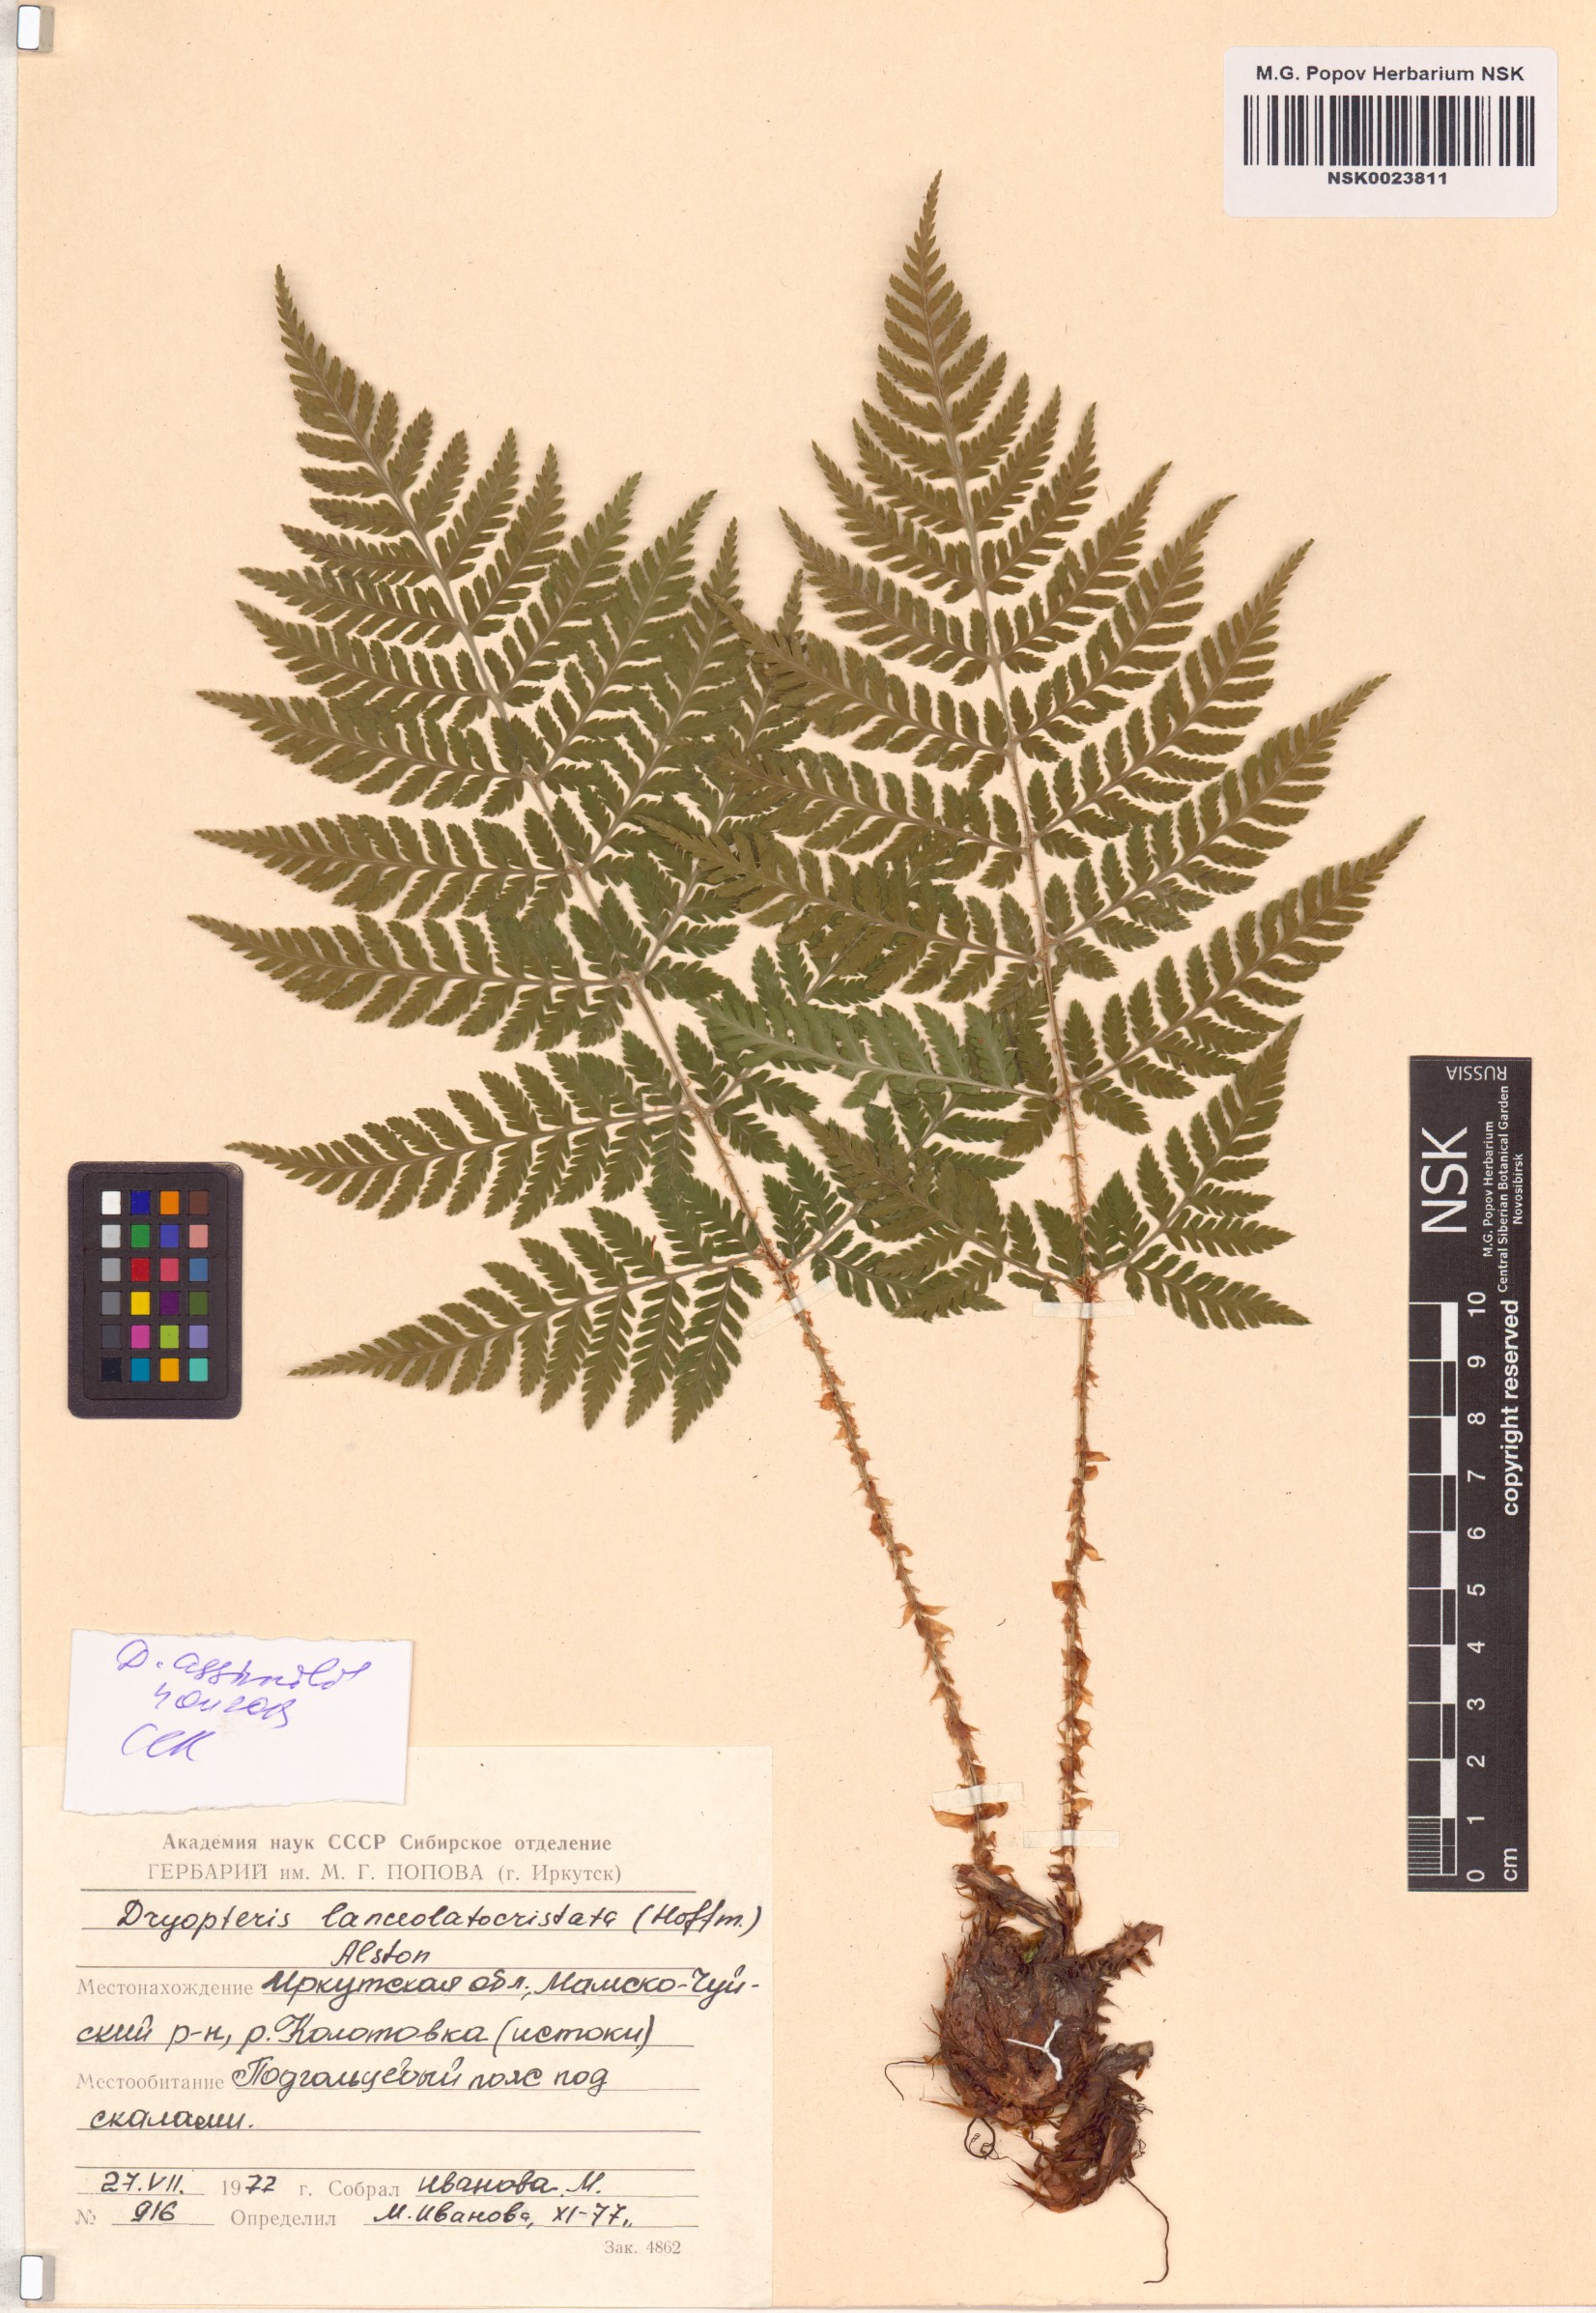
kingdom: Plantae
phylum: Tracheophyta
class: Polypodiopsida
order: Polypodiales
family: Dryopteridaceae
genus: Dryopteris
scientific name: Dryopteris expansa
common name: Northern buckler fern
